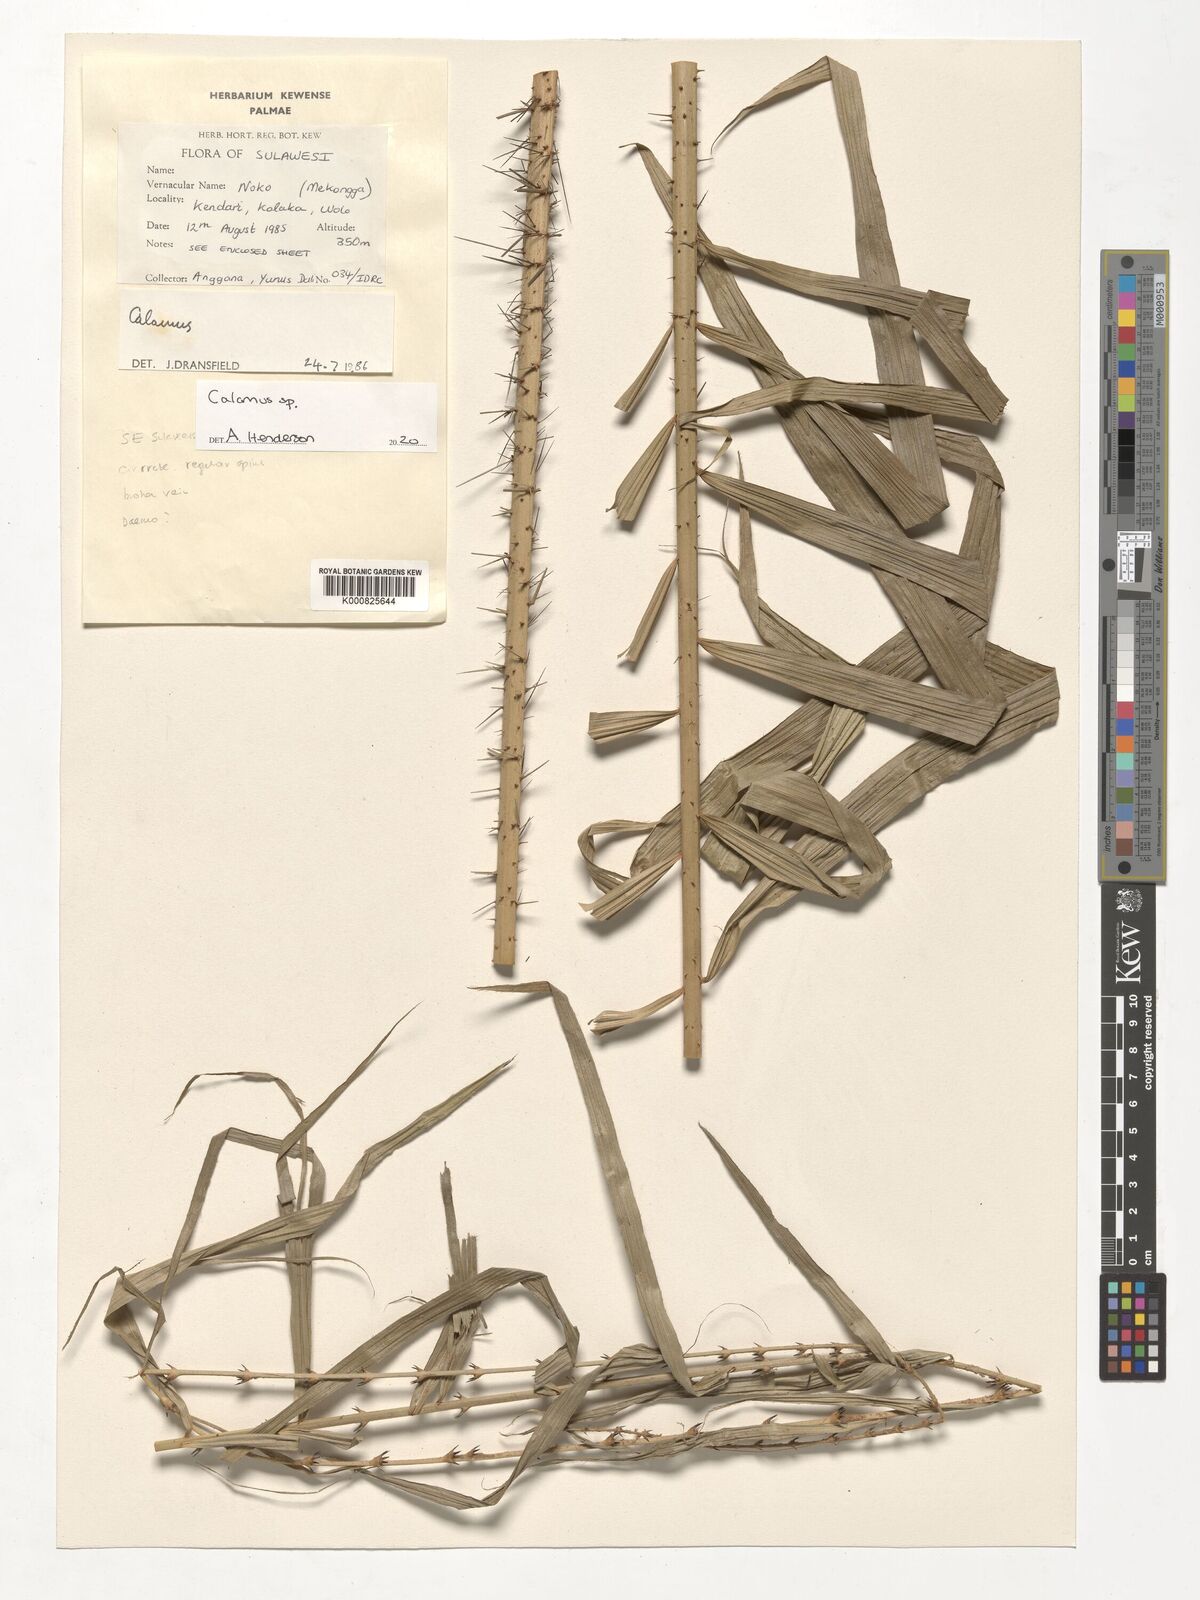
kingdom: Plantae
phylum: Tracheophyta
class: Liliopsida
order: Arecales
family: Arecaceae
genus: Calamus
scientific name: Calamus
